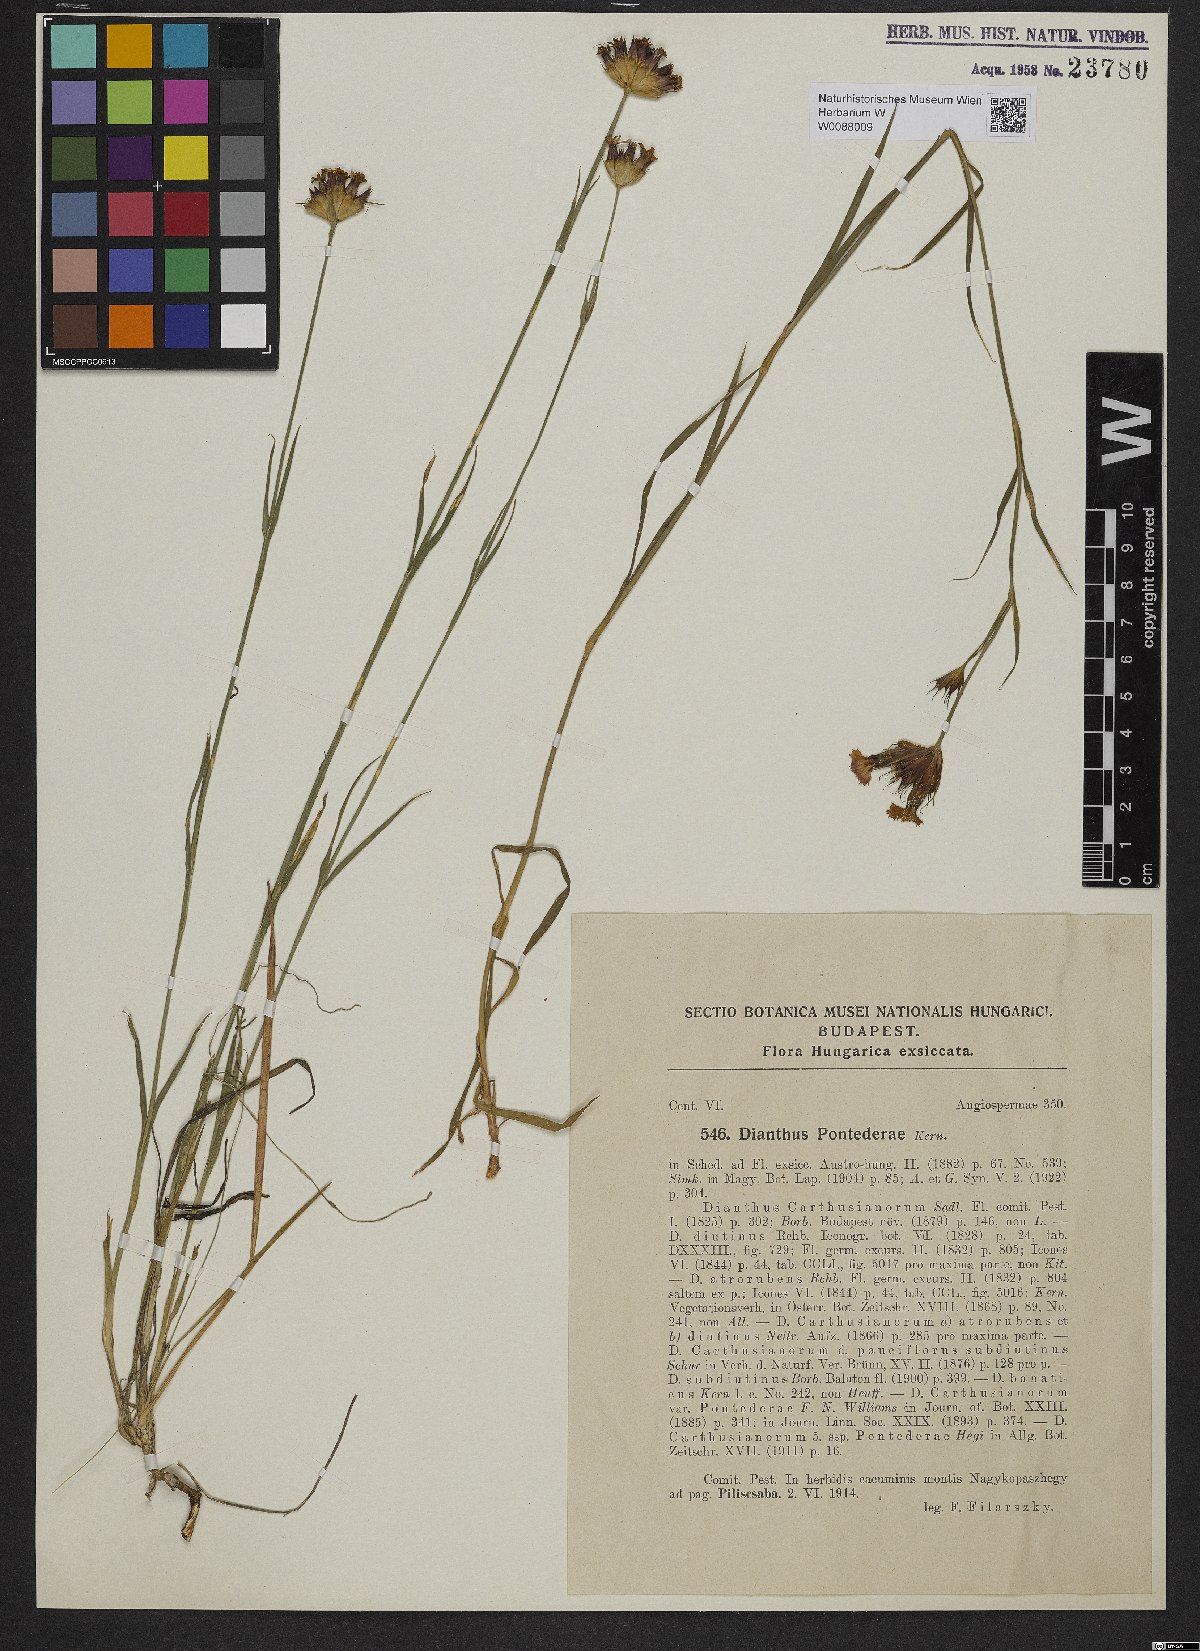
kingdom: Plantae
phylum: Tracheophyta
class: Magnoliopsida
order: Caryophyllales
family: Caryophyllaceae
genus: Dianthus
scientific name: Dianthus pontederae
